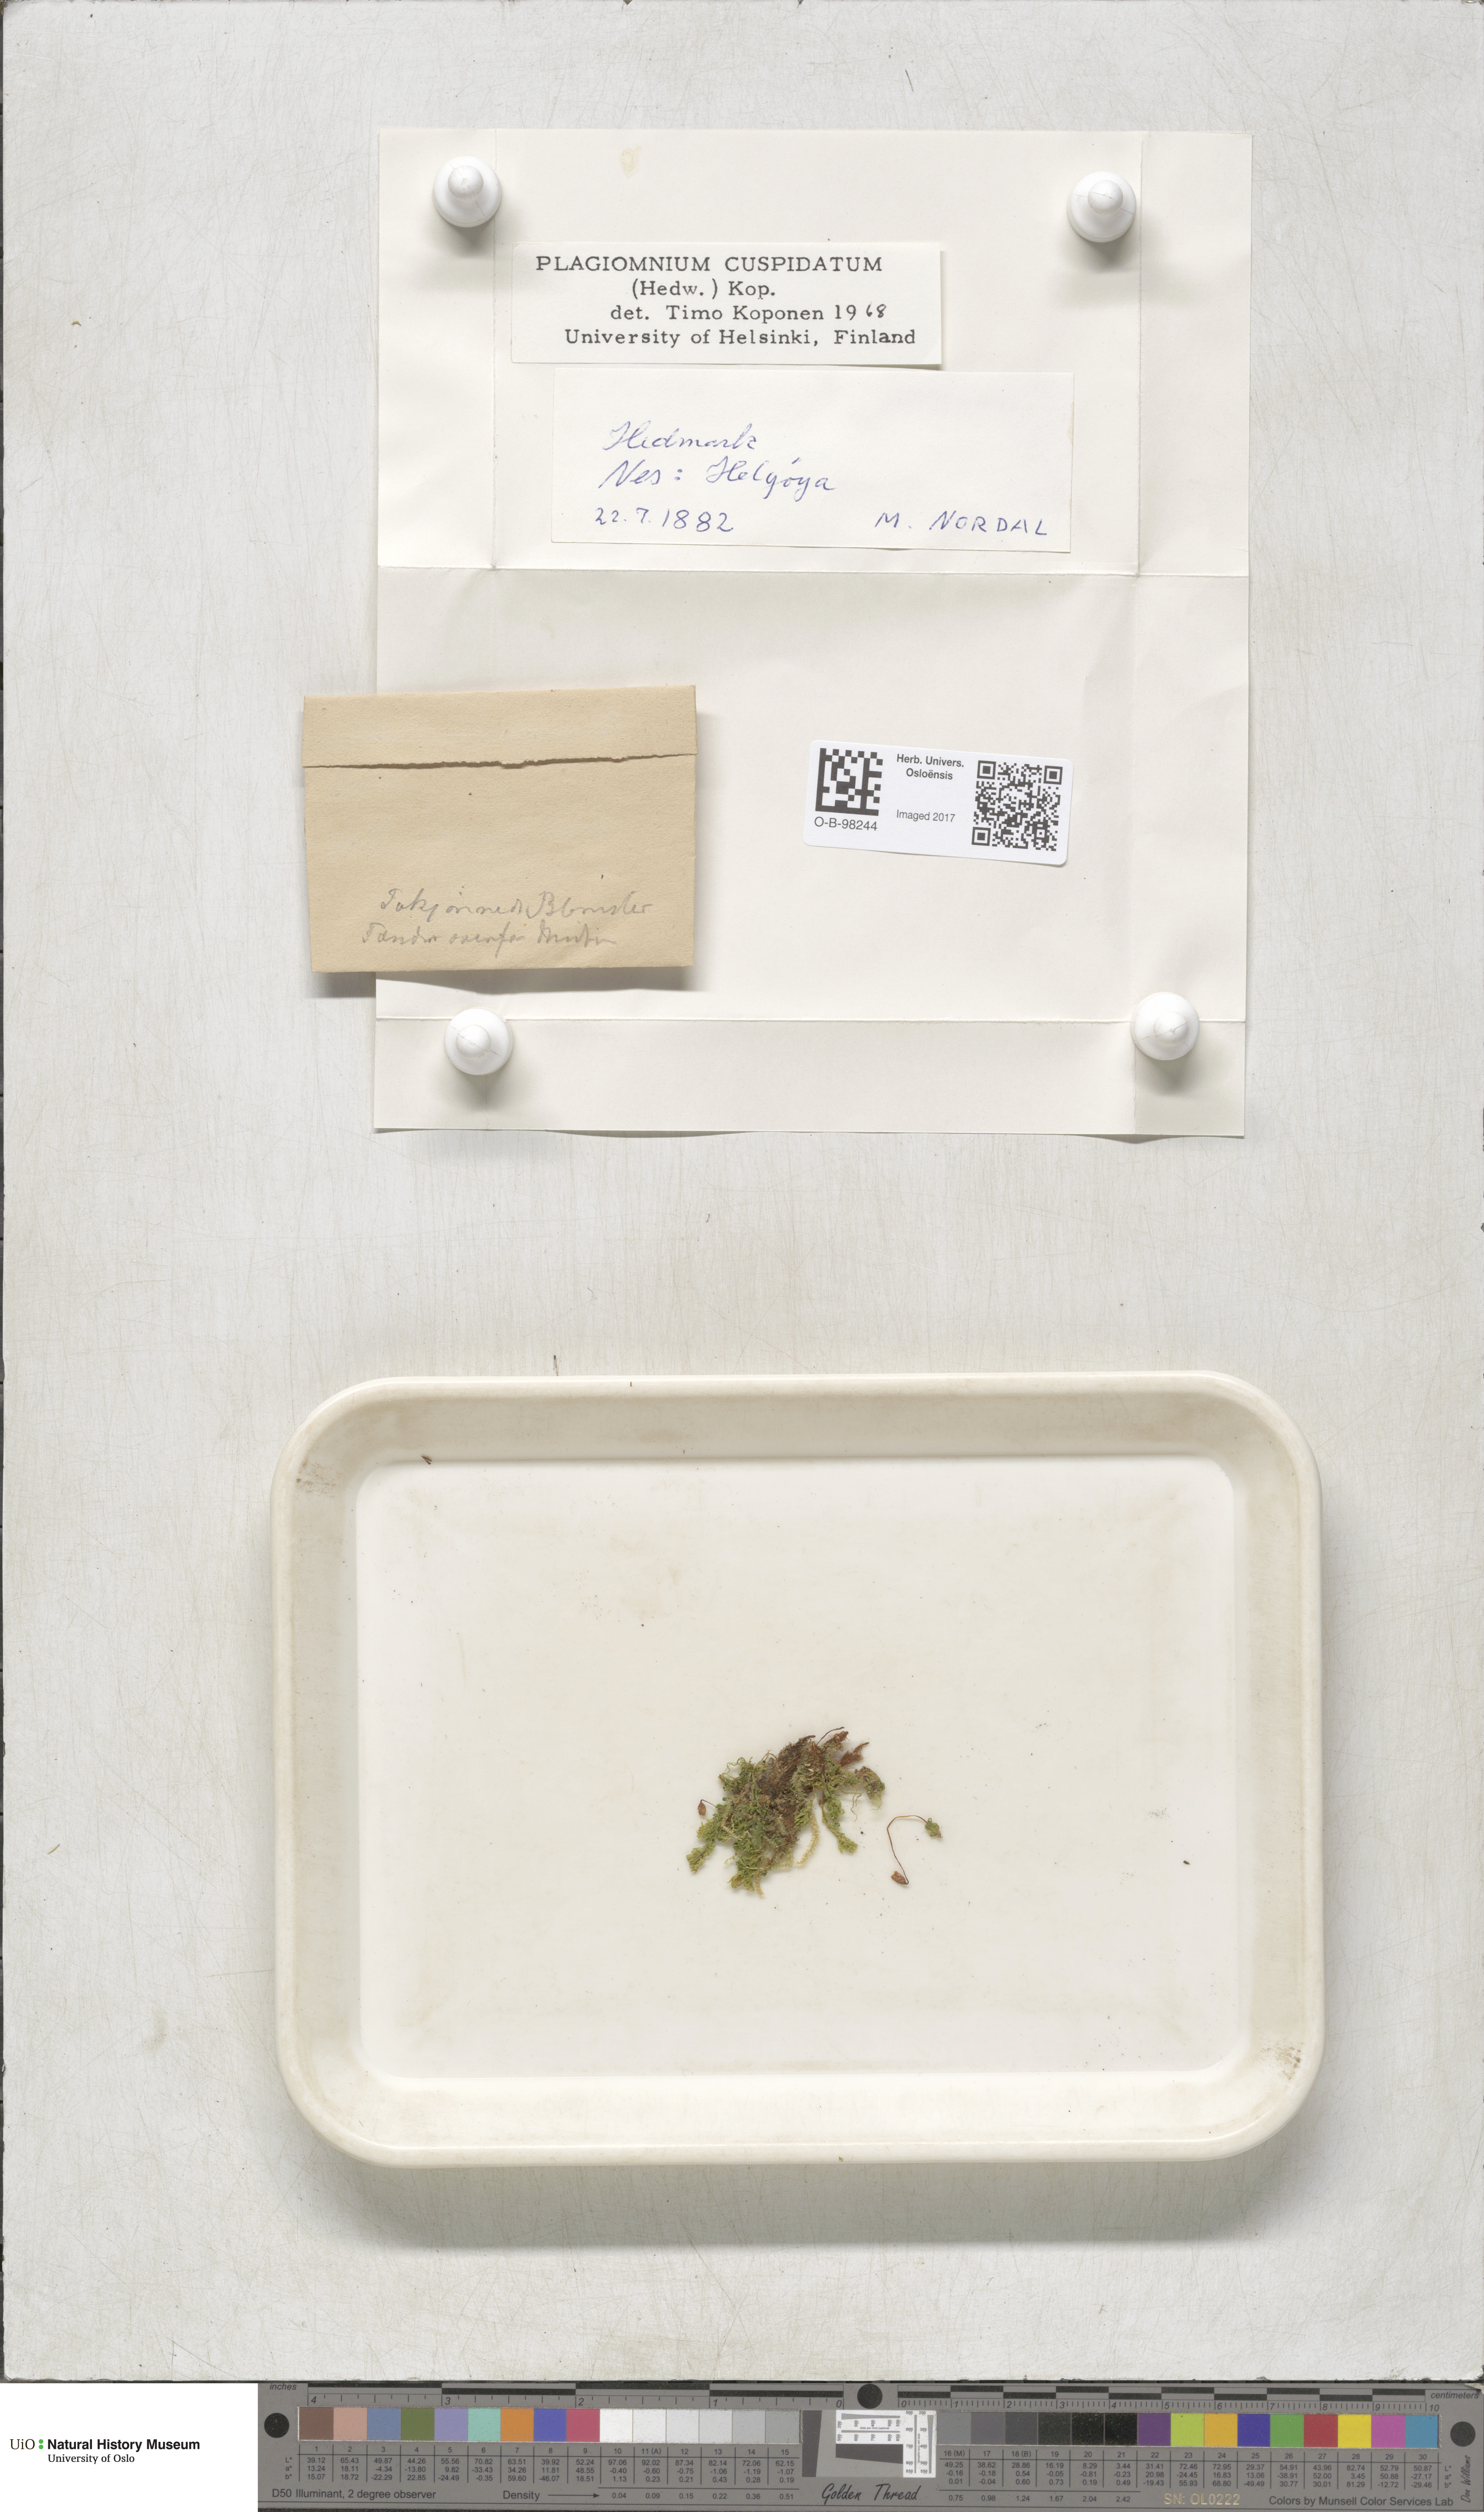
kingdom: Plantae
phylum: Bryophyta
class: Bryopsida
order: Bryales
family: Mniaceae
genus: Plagiomnium
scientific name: Plagiomnium cuspidatum
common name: Woodsy leafy moss
